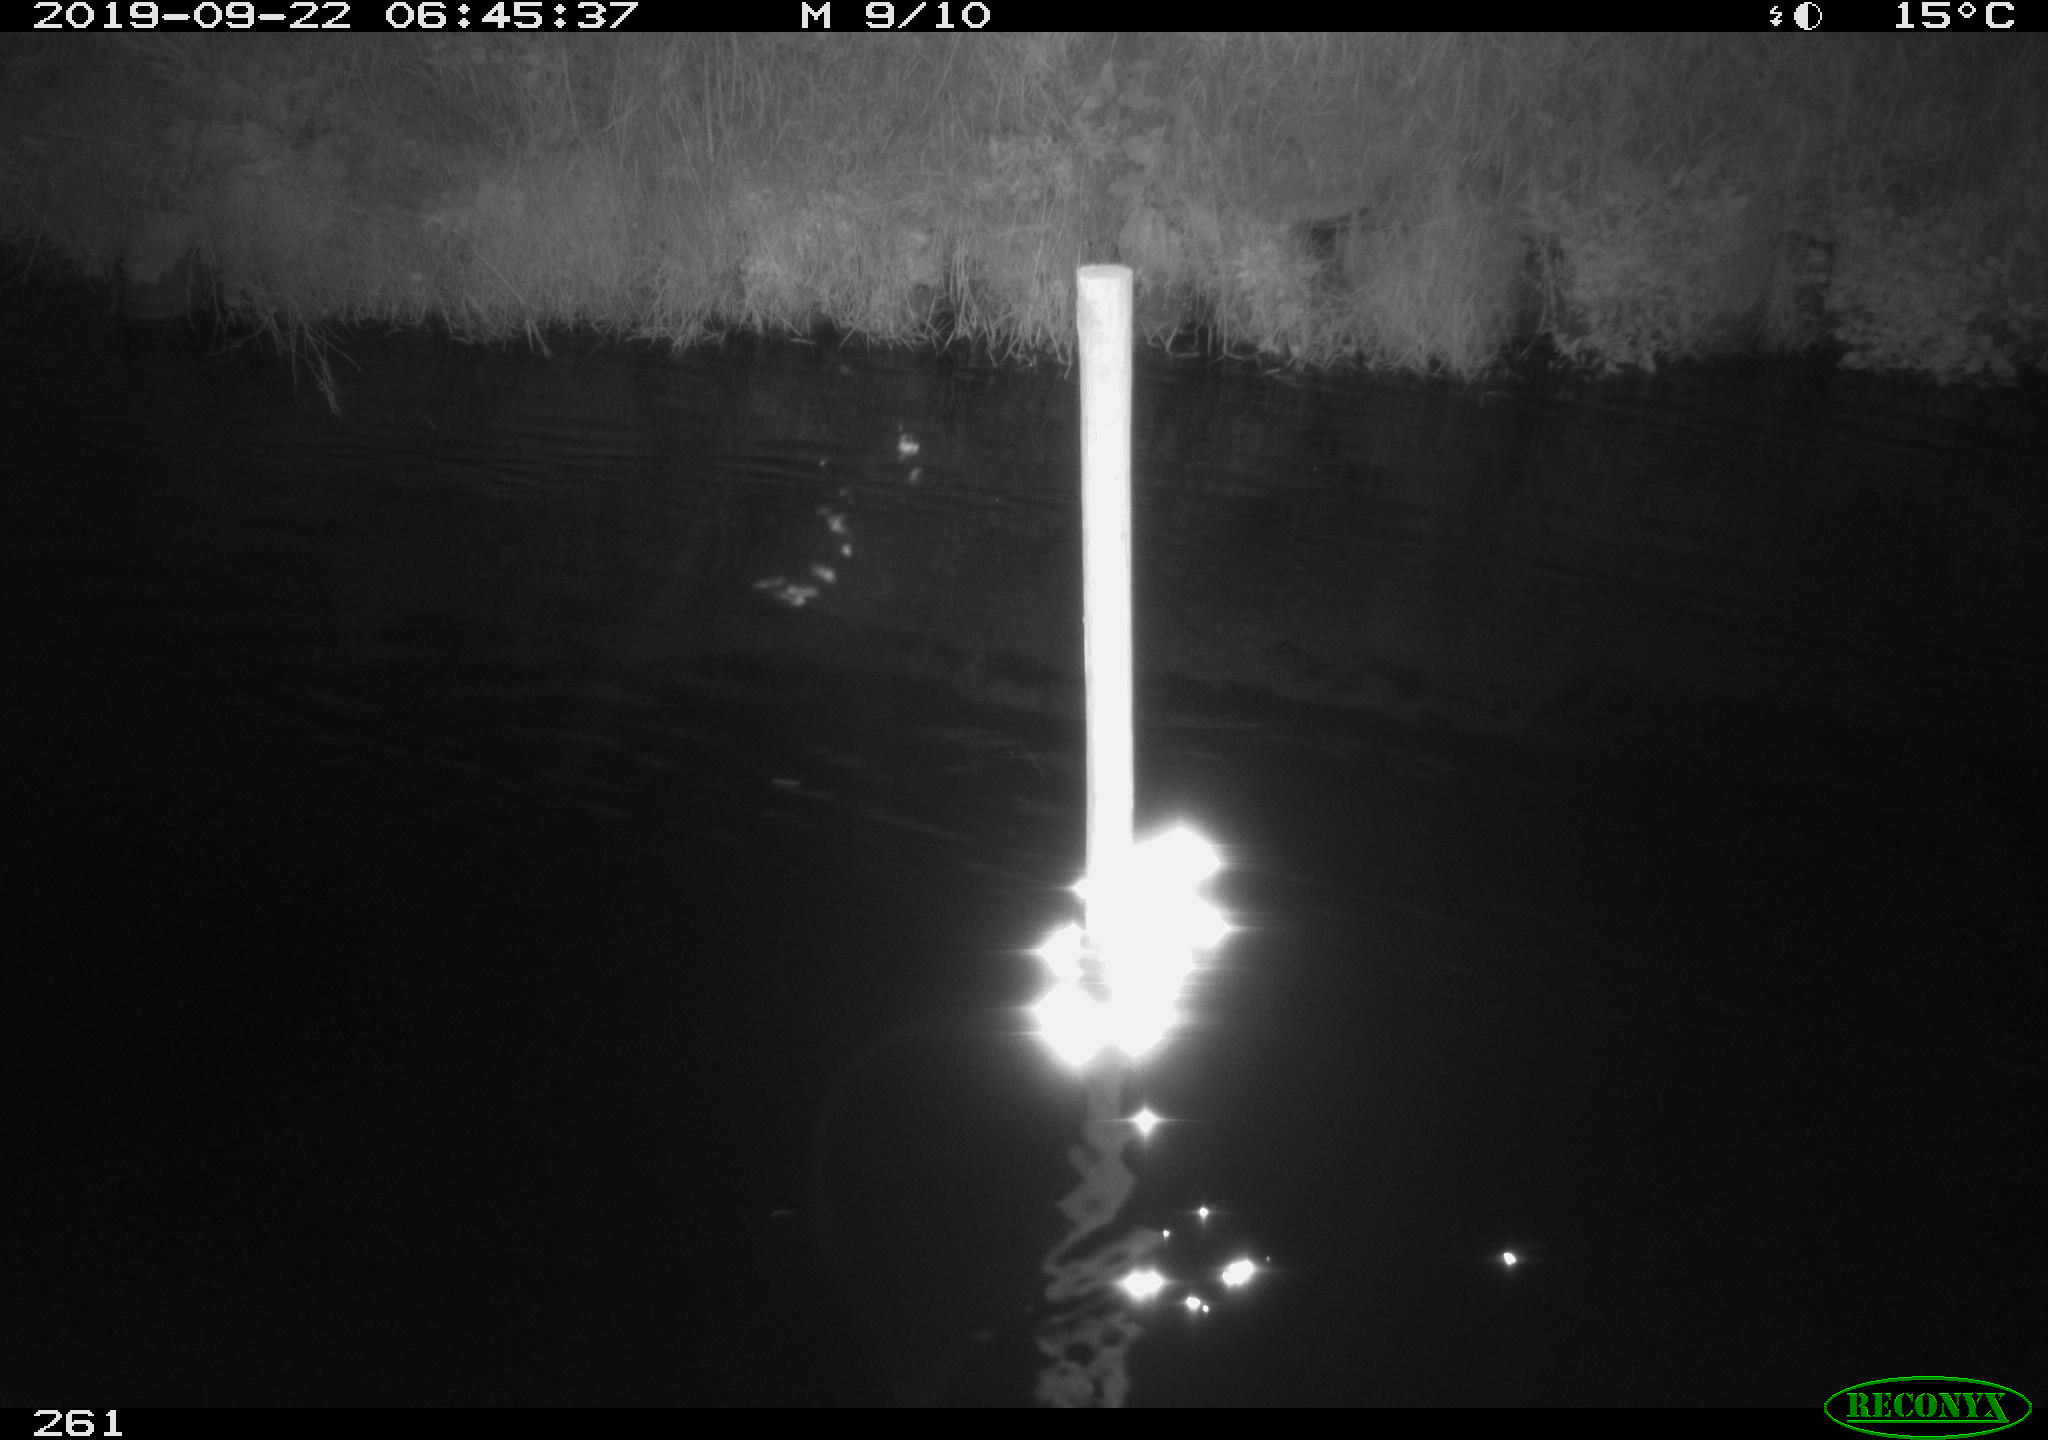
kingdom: Animalia
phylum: Chordata
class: Aves
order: Anseriformes
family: Anatidae
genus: Anas
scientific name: Anas platyrhynchos
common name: Mallard
